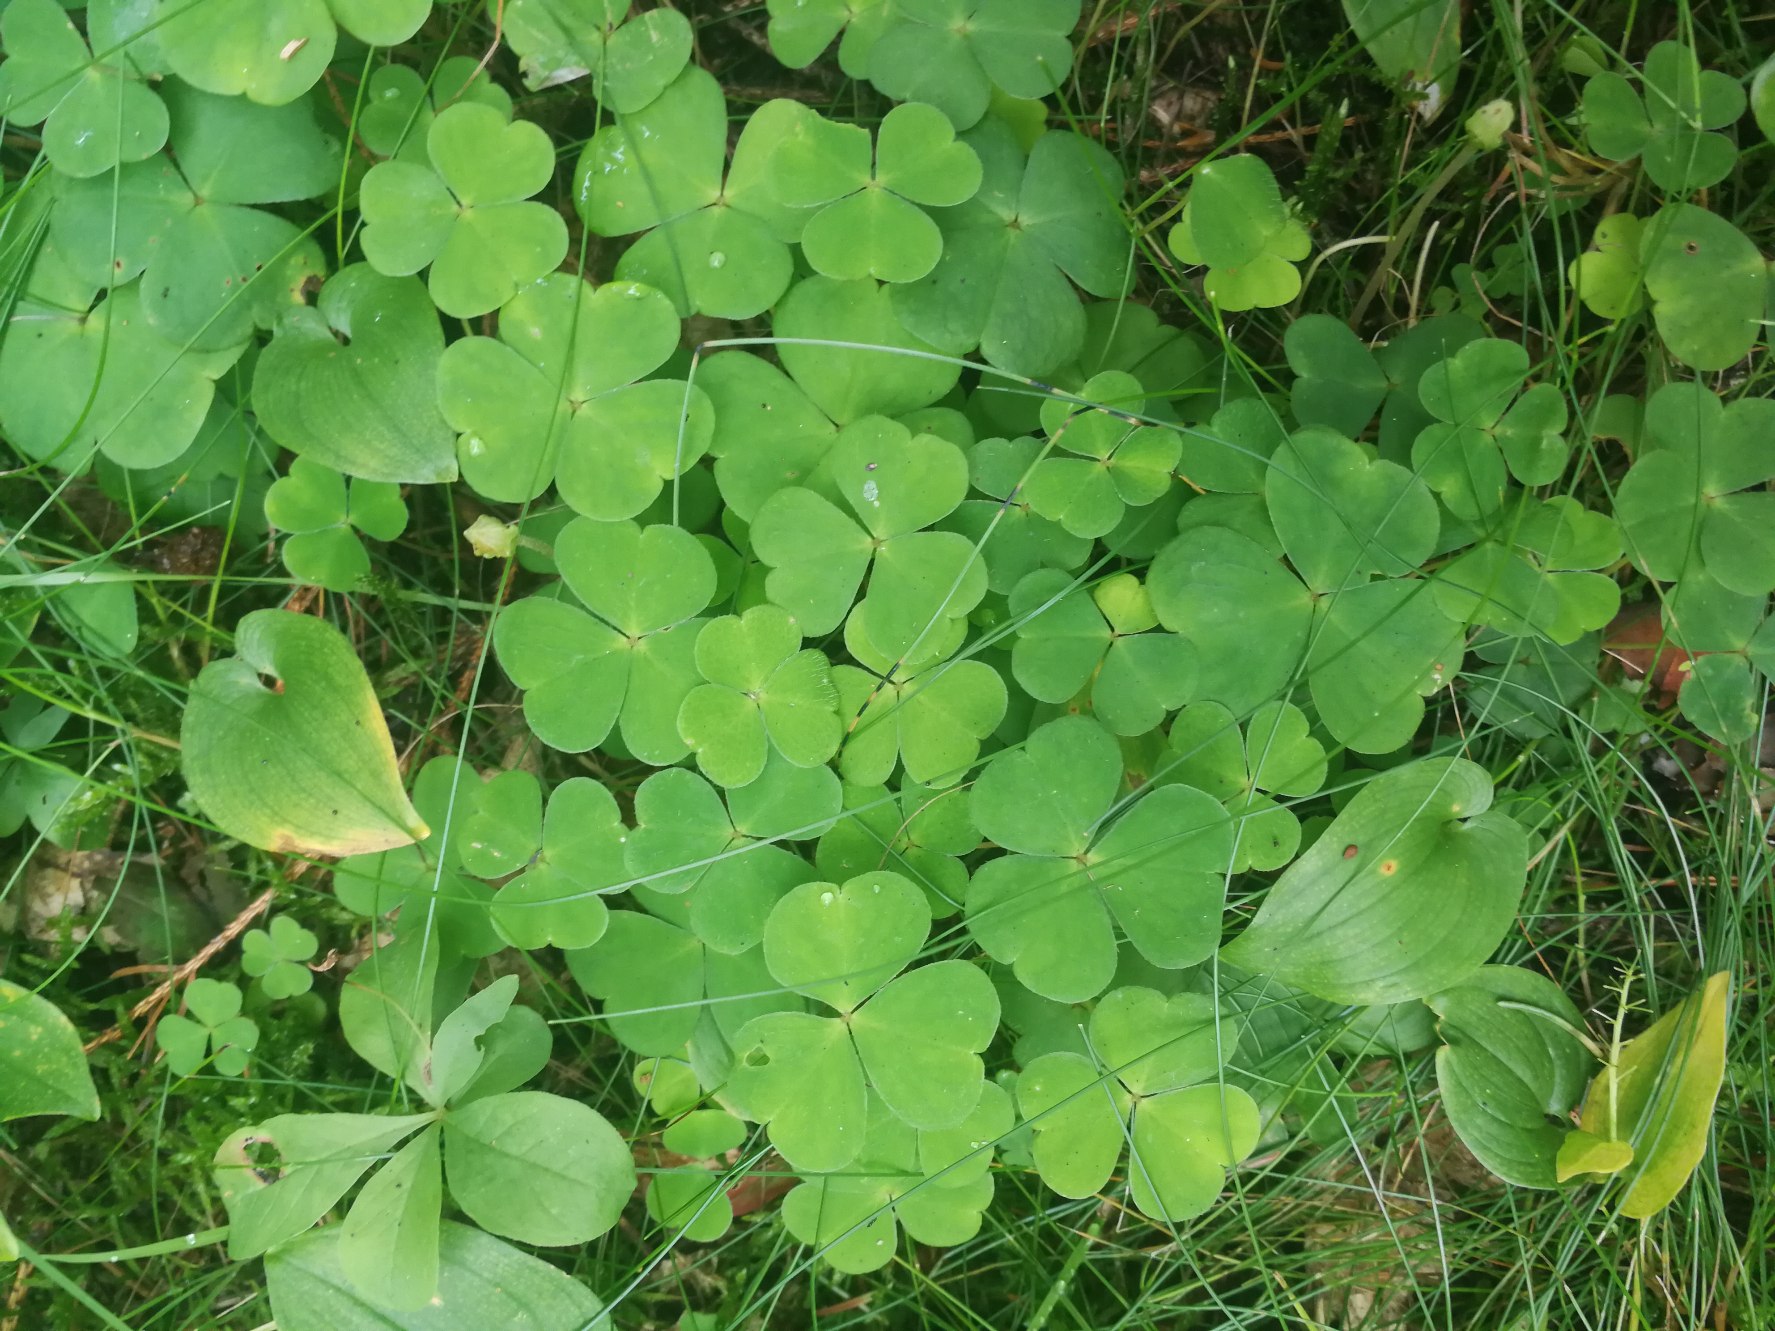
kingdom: Plantae
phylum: Tracheophyta
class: Magnoliopsida
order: Oxalidales
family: Oxalidaceae
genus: Oxalis
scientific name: Oxalis acetosella
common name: Skovsyre
